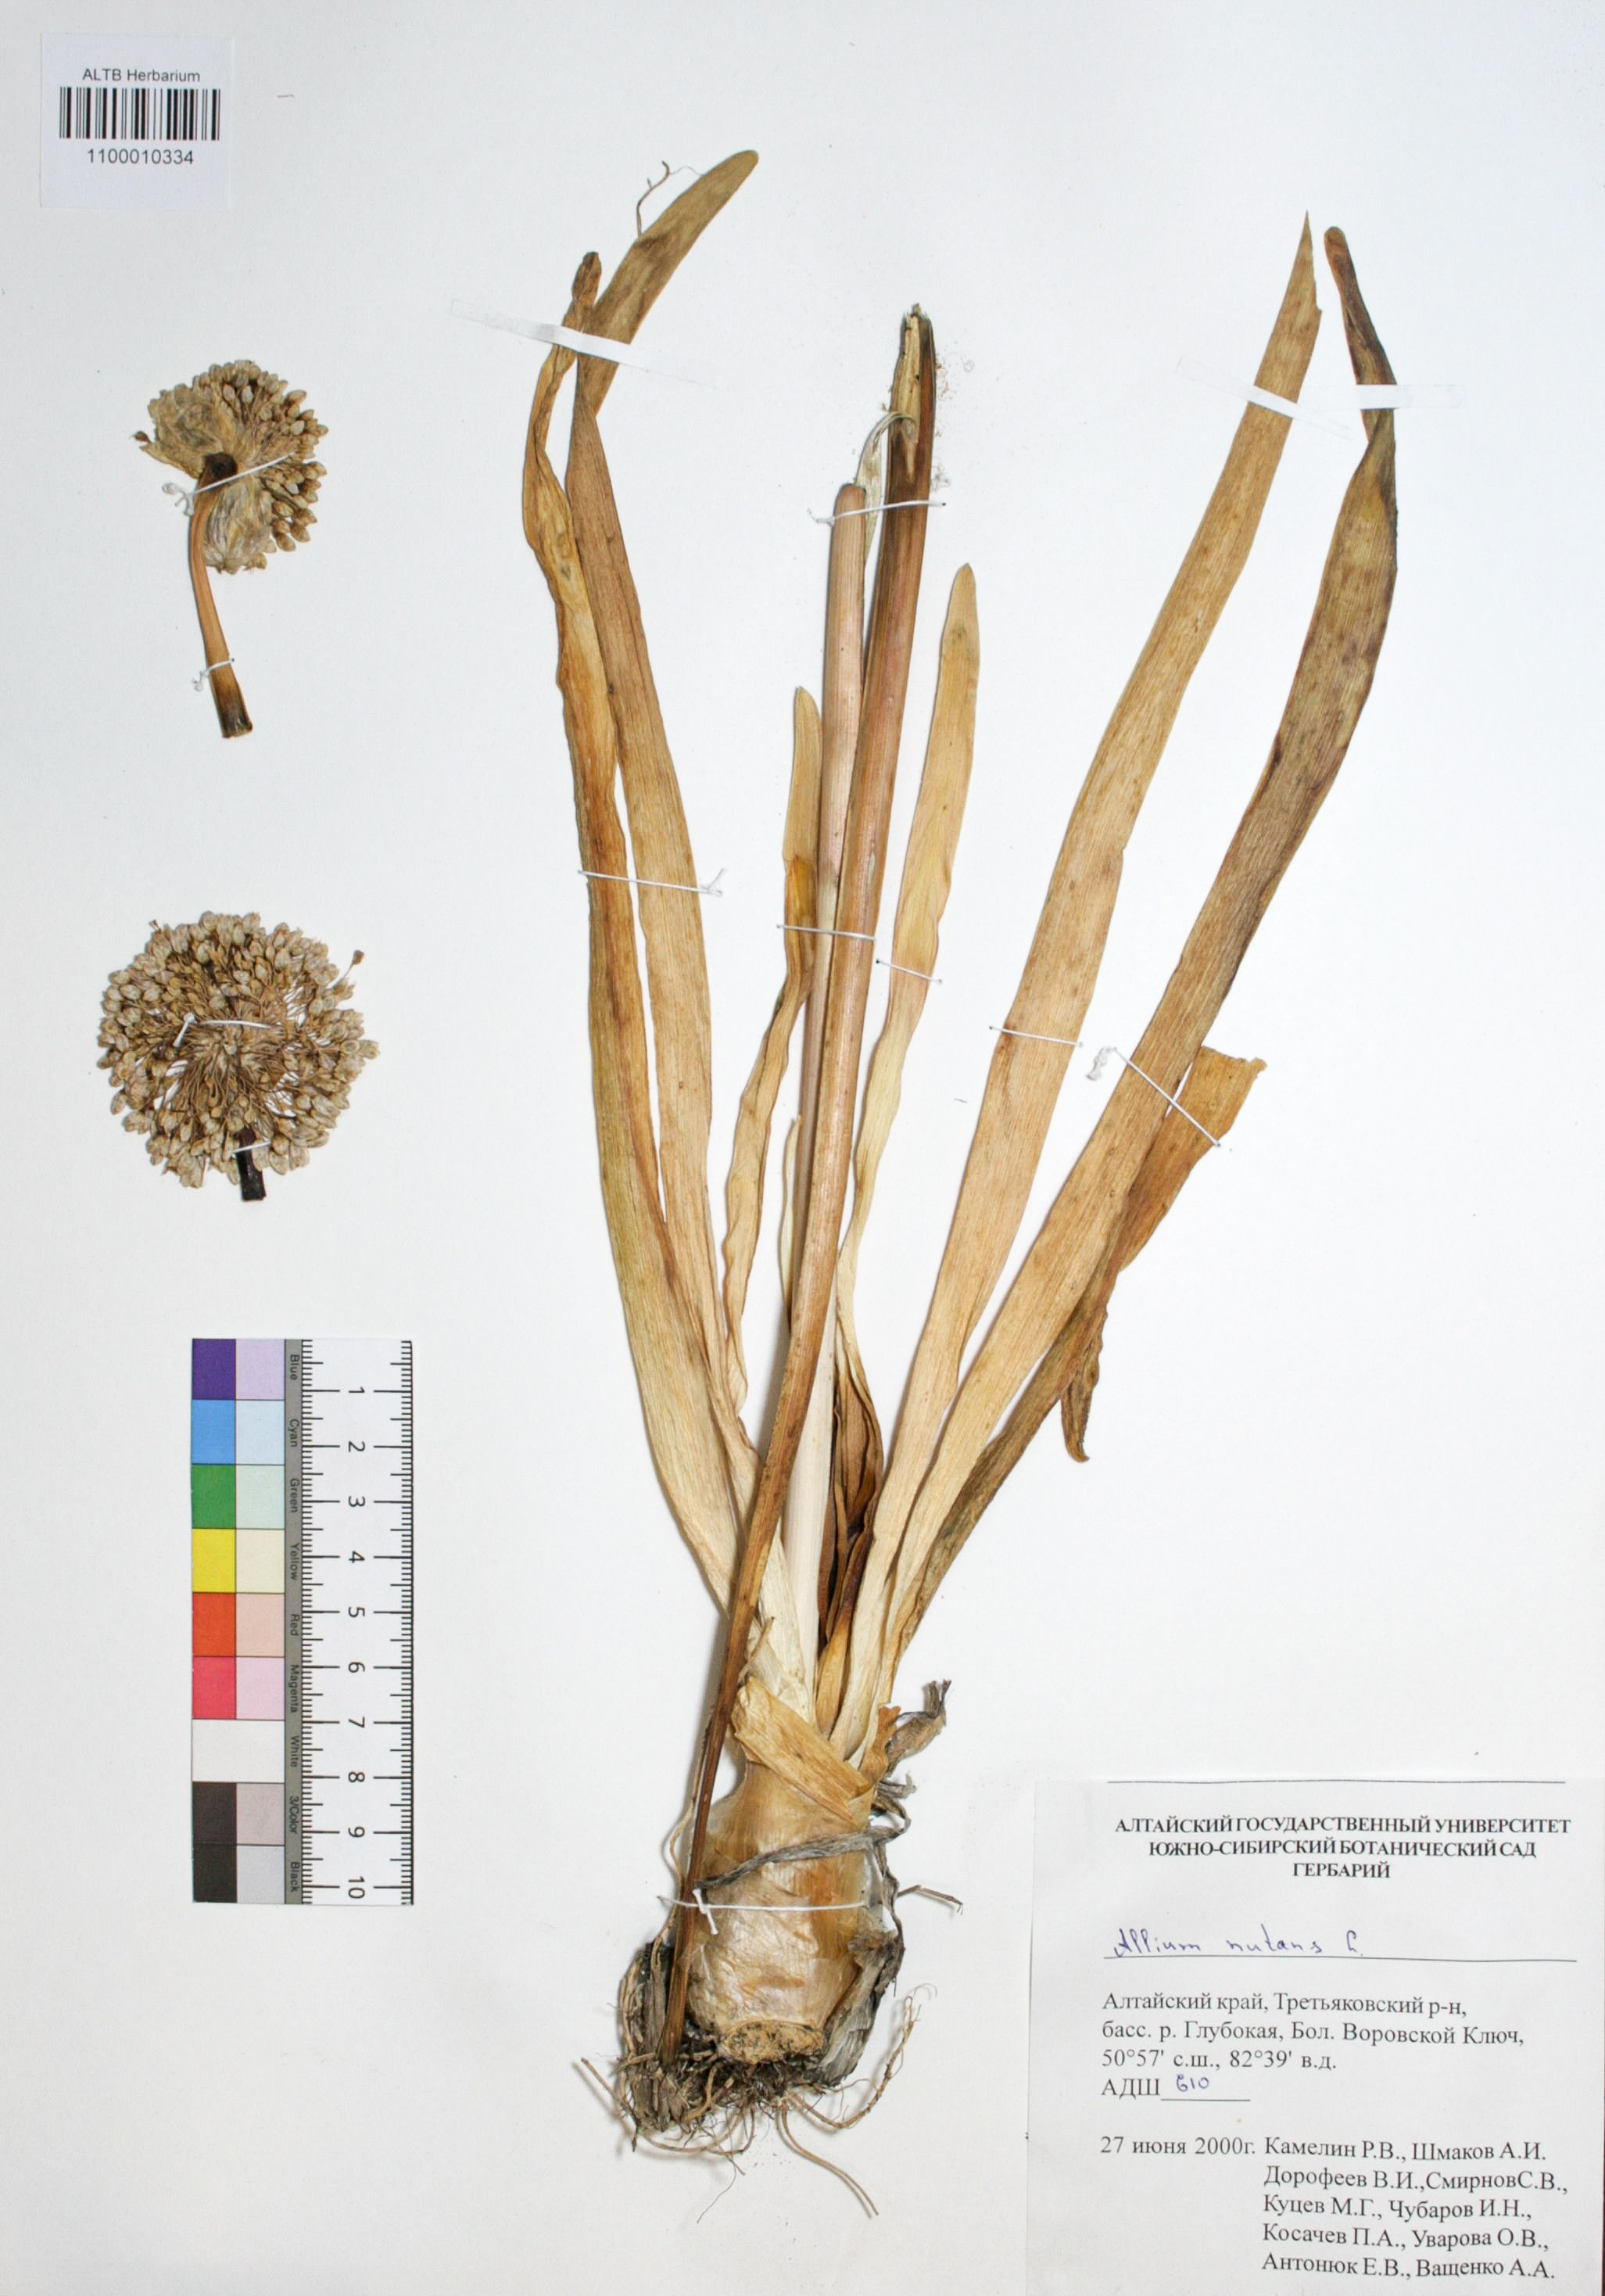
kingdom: Plantae
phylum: Tracheophyta
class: Liliopsida
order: Asparagales
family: Amaryllidaceae
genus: Allium
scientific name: Allium nutans
